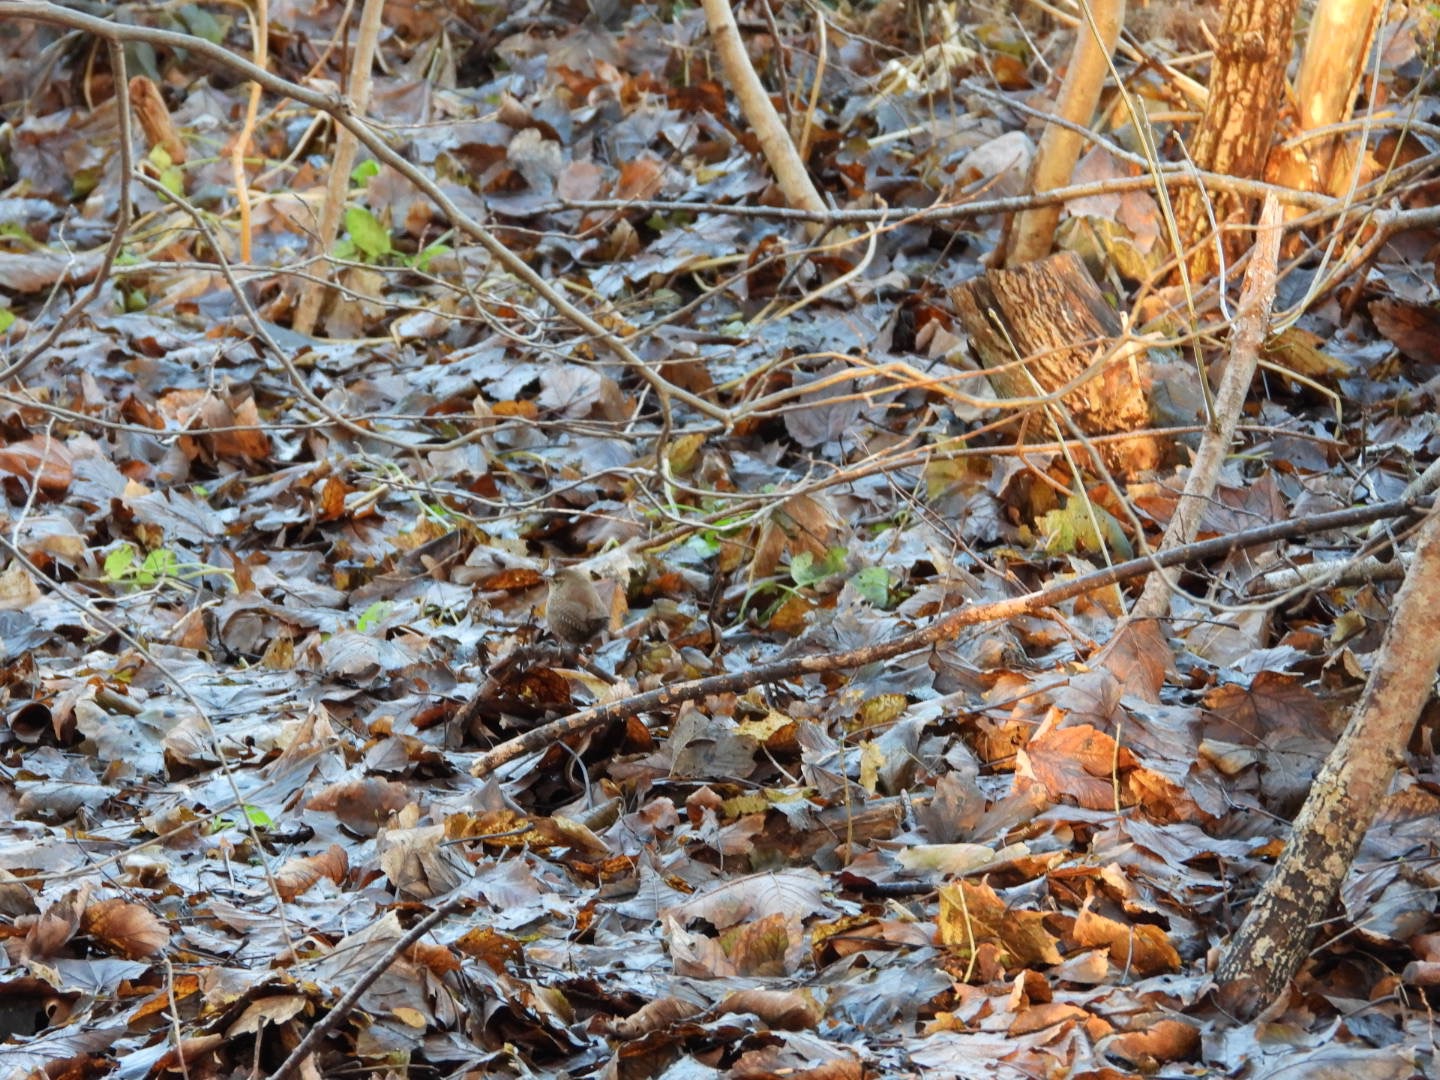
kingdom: Animalia
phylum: Chordata
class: Aves
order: Passeriformes
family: Troglodytidae
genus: Troglodytes
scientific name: Troglodytes troglodytes
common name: Gærdesmutte
